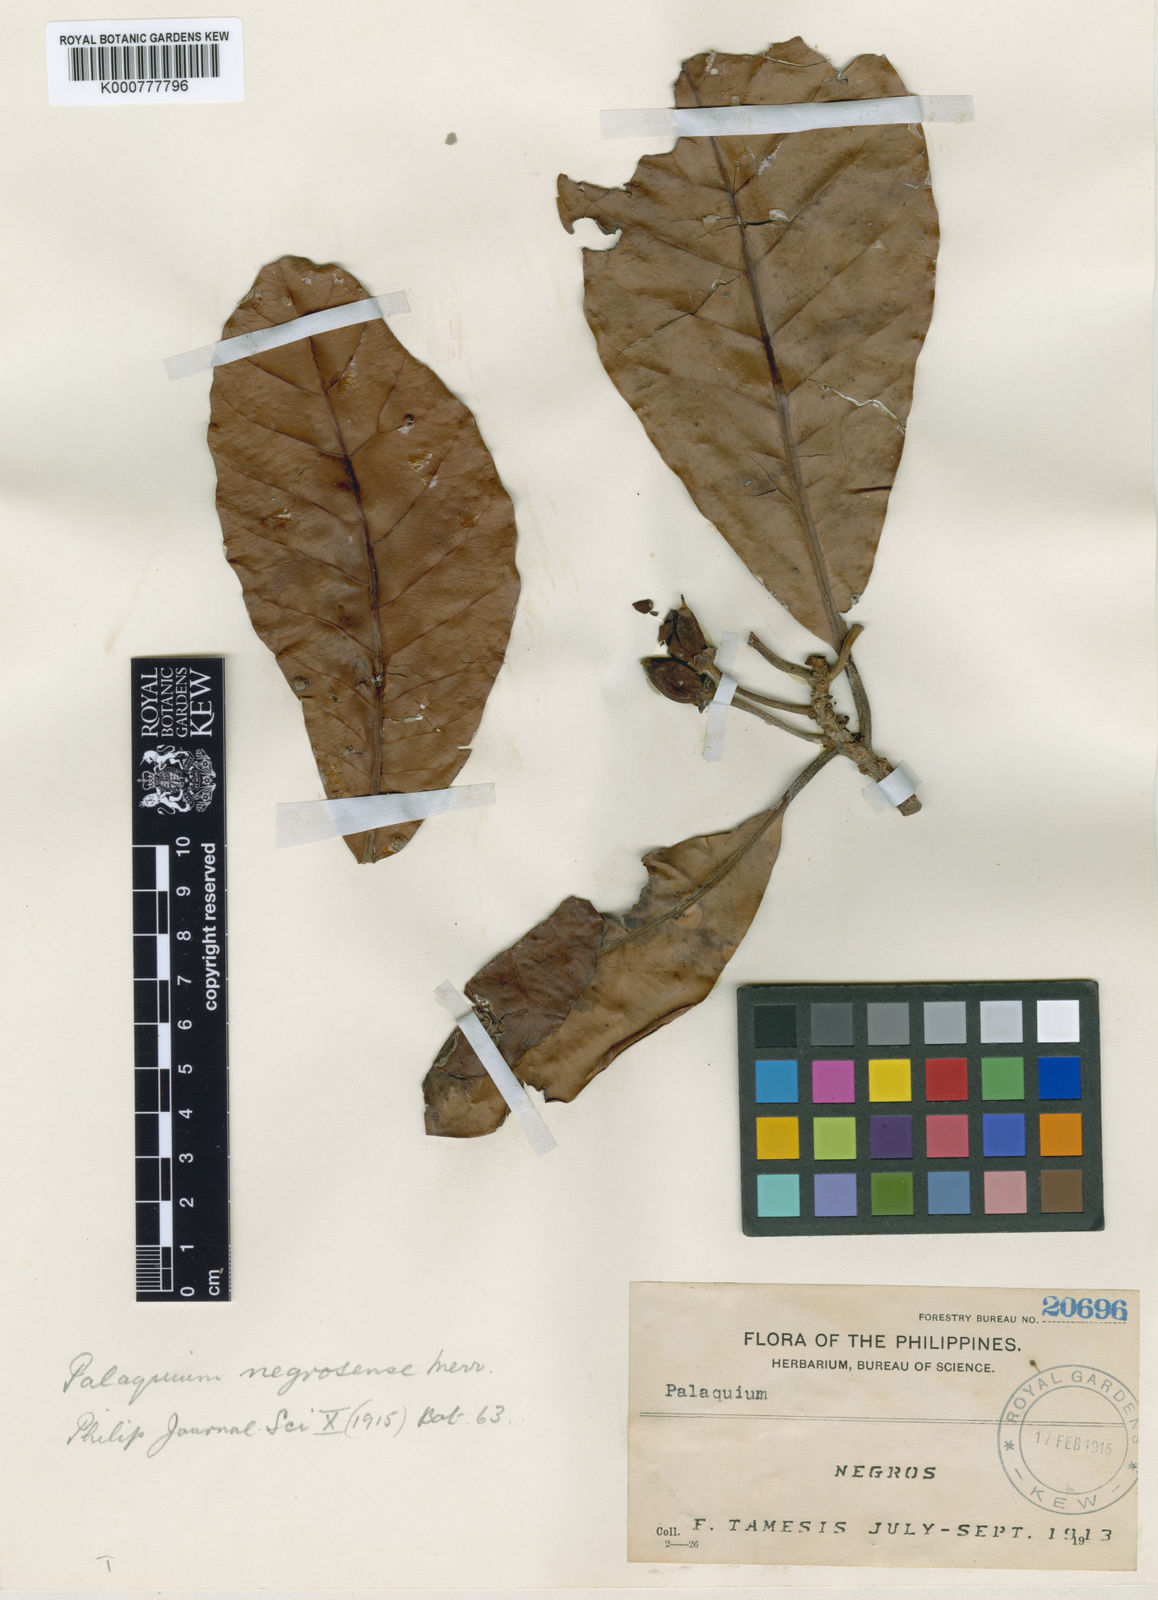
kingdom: Plantae
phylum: Tracheophyta
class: Magnoliopsida
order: Ericales
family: Sapotaceae
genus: Palaquium
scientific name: Palaquium obtusifolium
